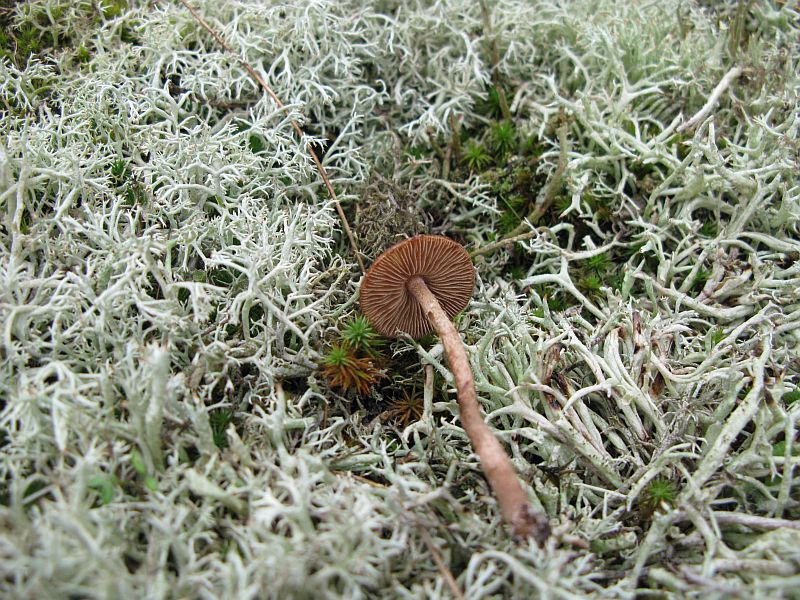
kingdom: Fungi
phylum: Basidiomycota
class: Agaricomycetes
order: Agaricales
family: Inocybaceae
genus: Inocybe
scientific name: Inocybe
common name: trævlhat
